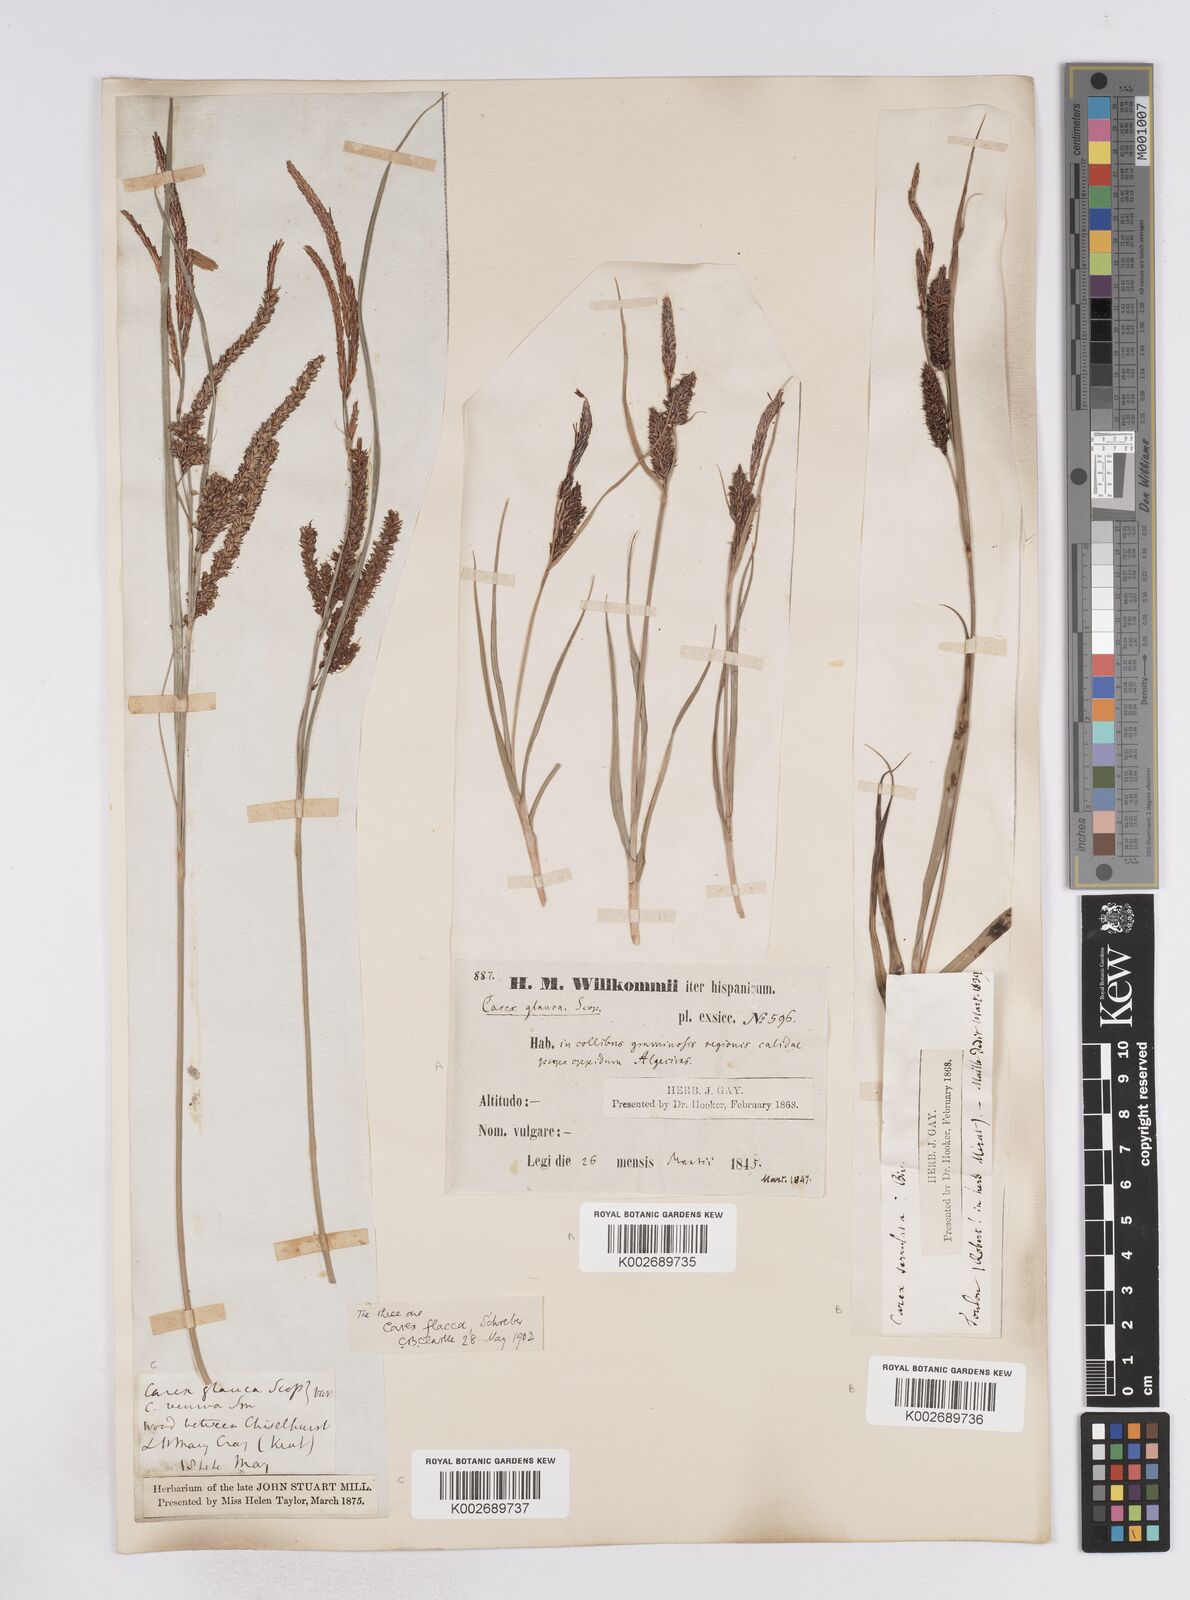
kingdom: Plantae
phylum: Tracheophyta
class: Liliopsida
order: Poales
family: Cyperaceae
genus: Carex
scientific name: Carex flacca
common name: Glaucous sedge
